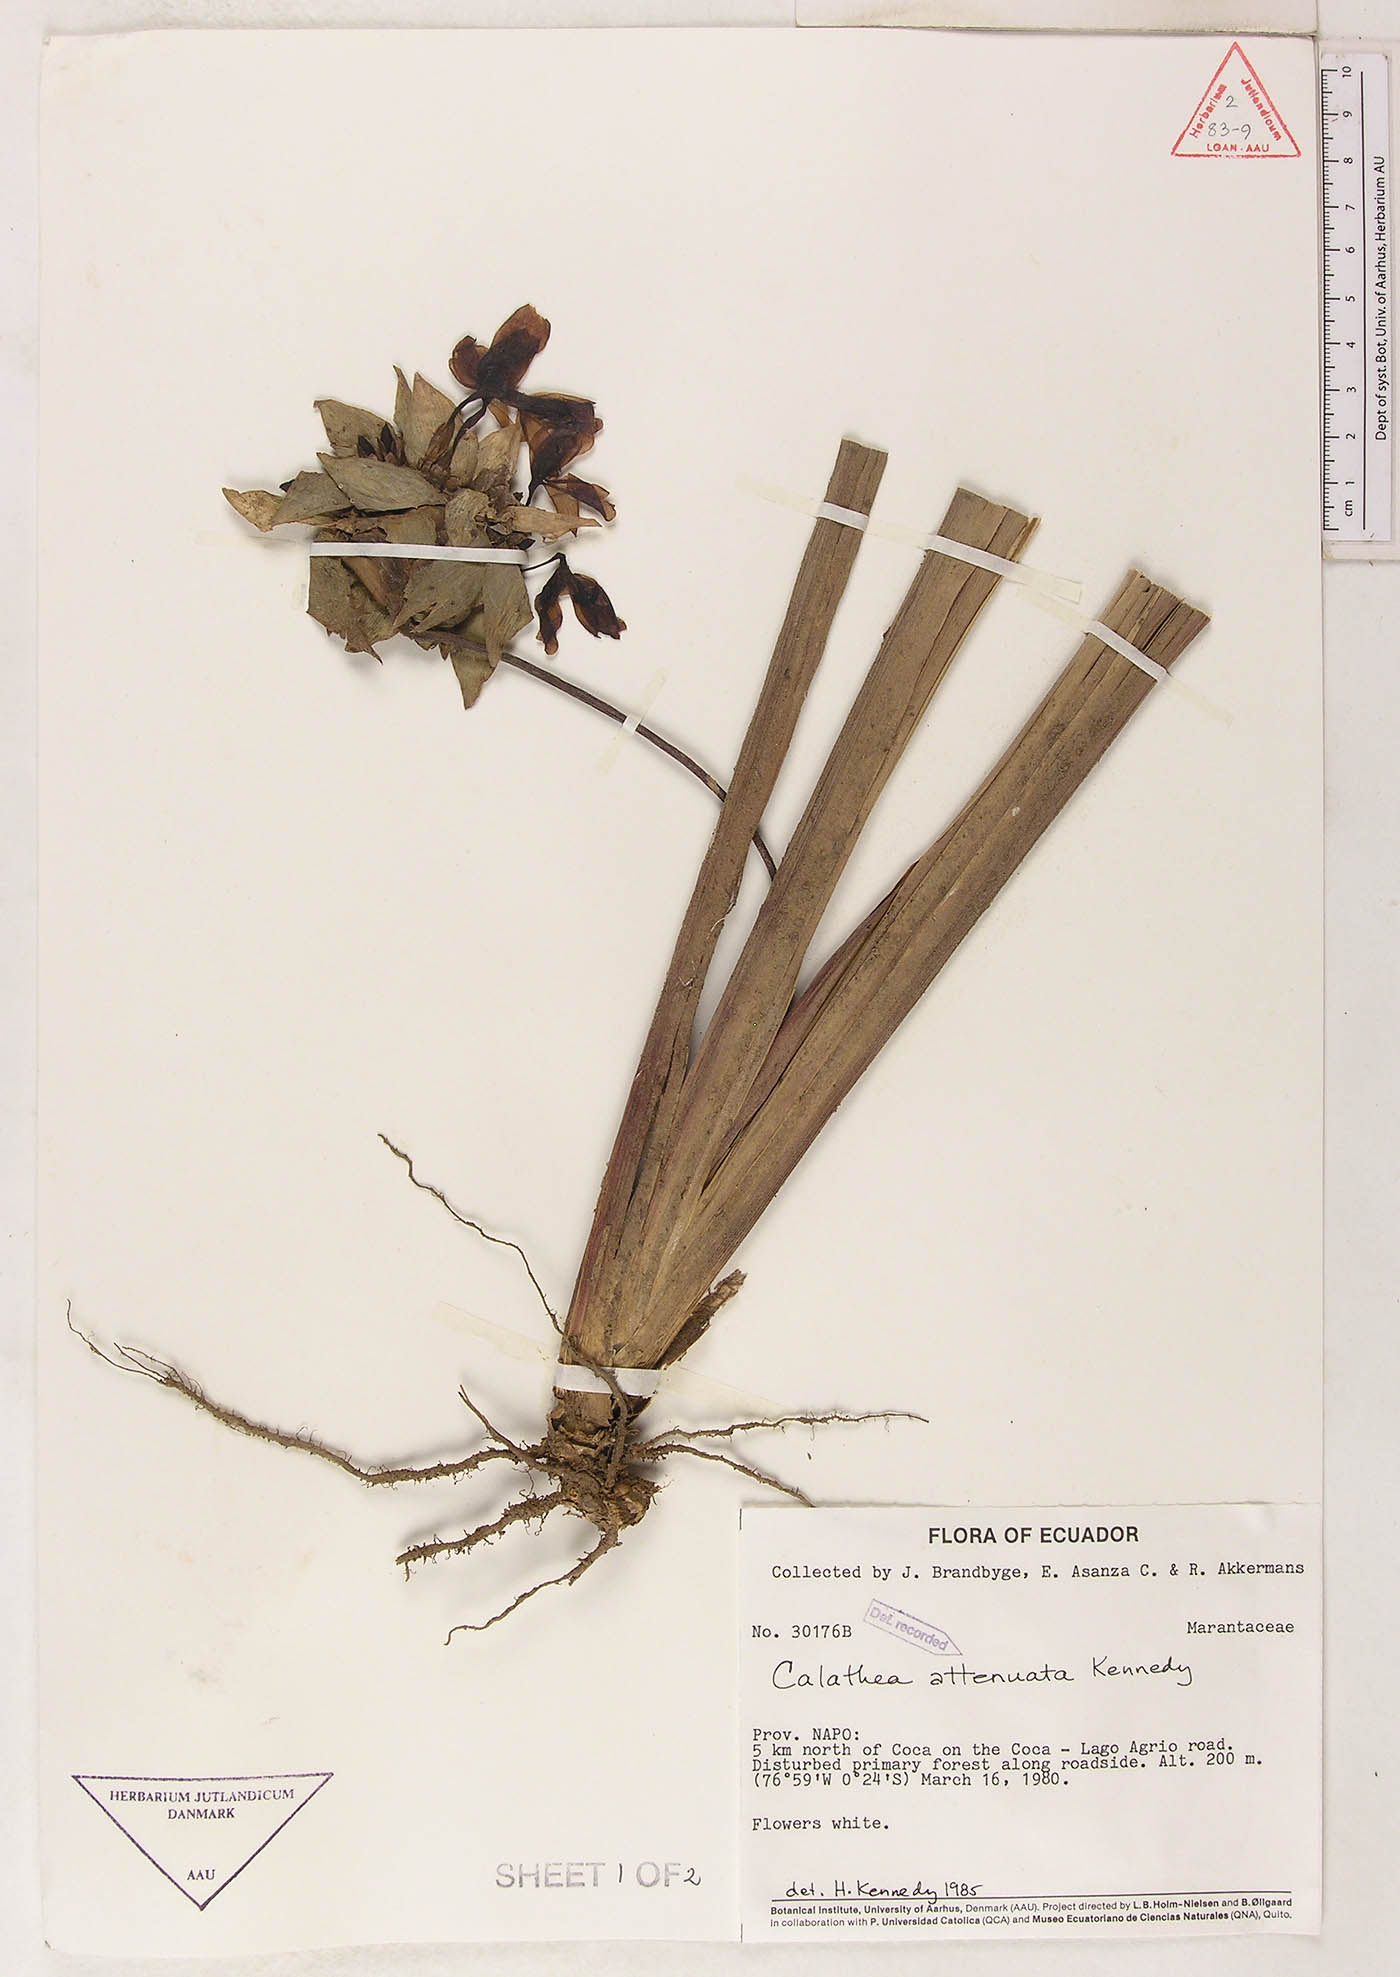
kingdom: Plantae
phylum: Tracheophyta
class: Liliopsida
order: Zingiberales
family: Marantaceae
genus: Goeppertia
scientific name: Goeppertia attenuata
